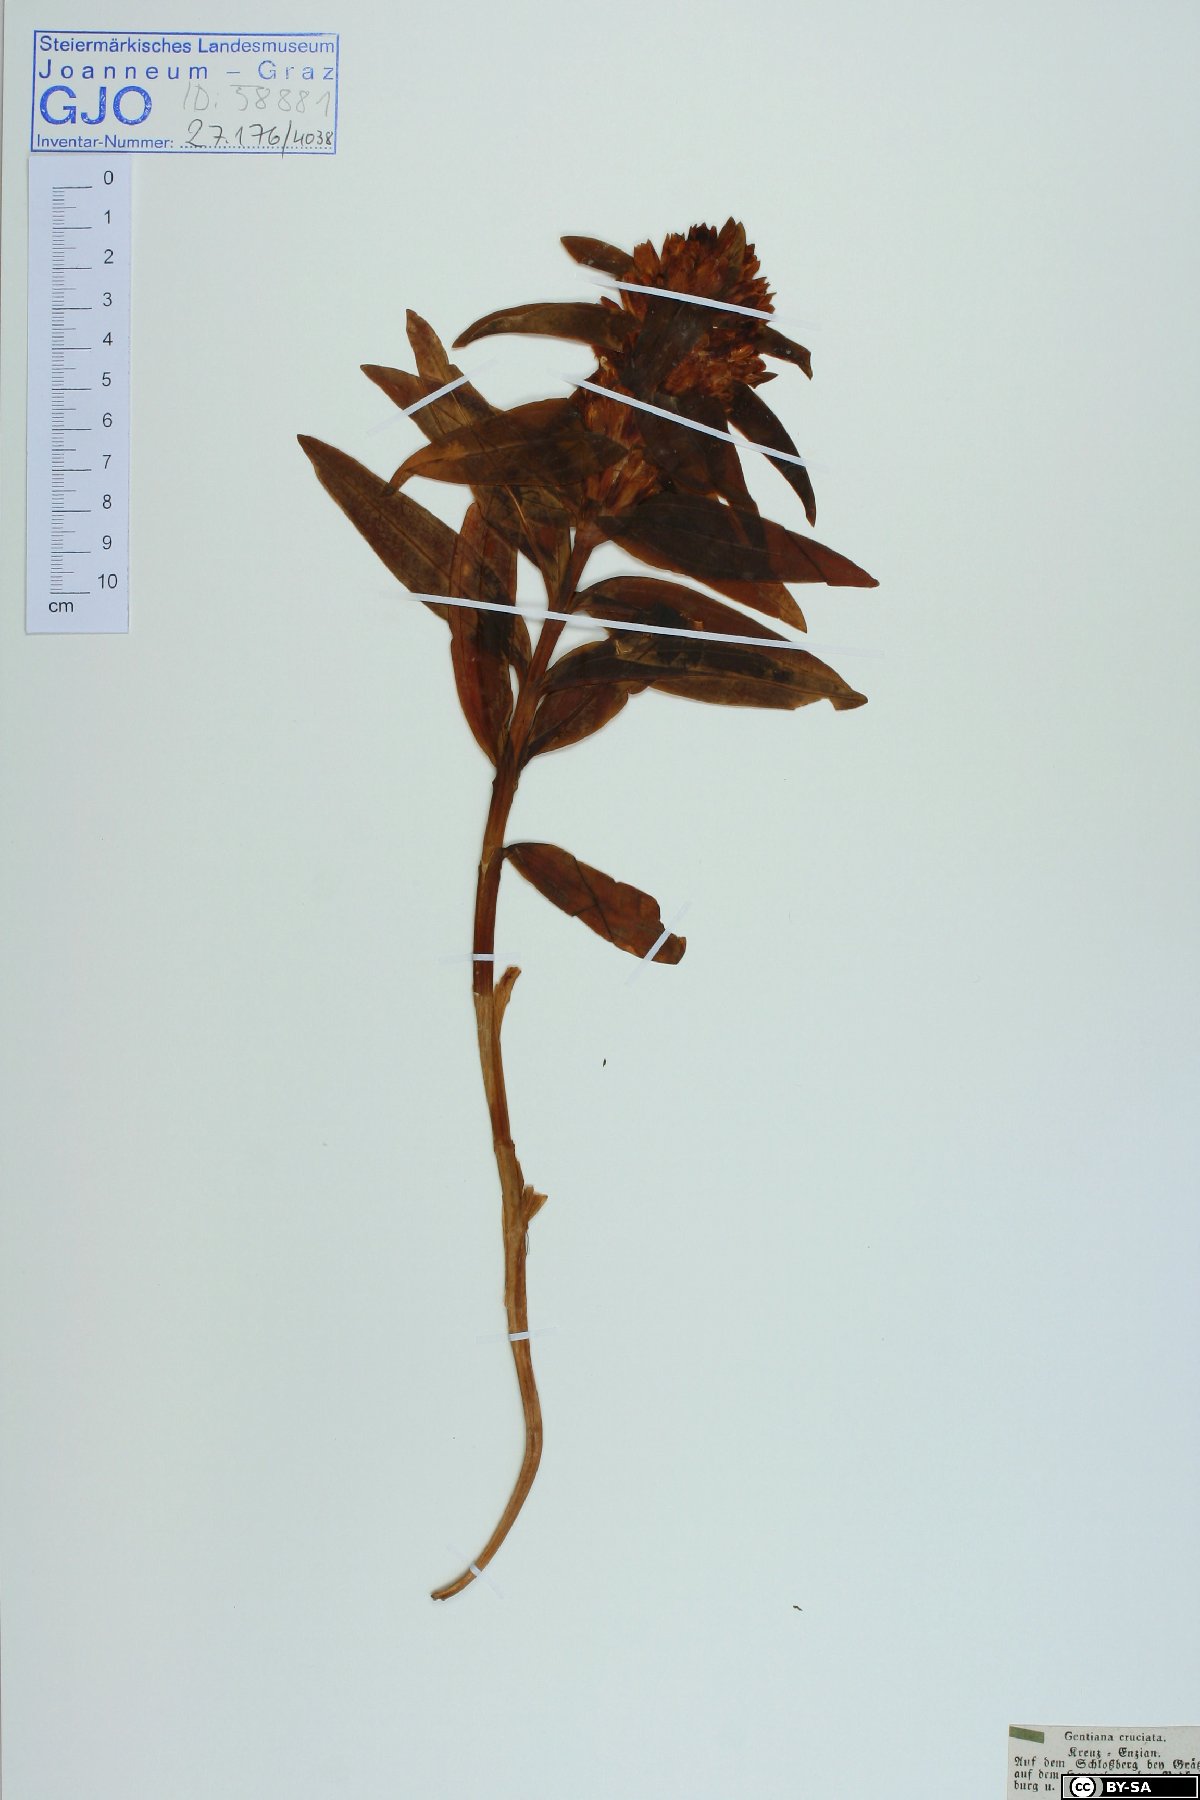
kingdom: Plantae
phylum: Tracheophyta
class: Magnoliopsida
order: Gentianales
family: Gentianaceae
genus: Gentiana
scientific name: Gentiana cruciata
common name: Cross gentian
